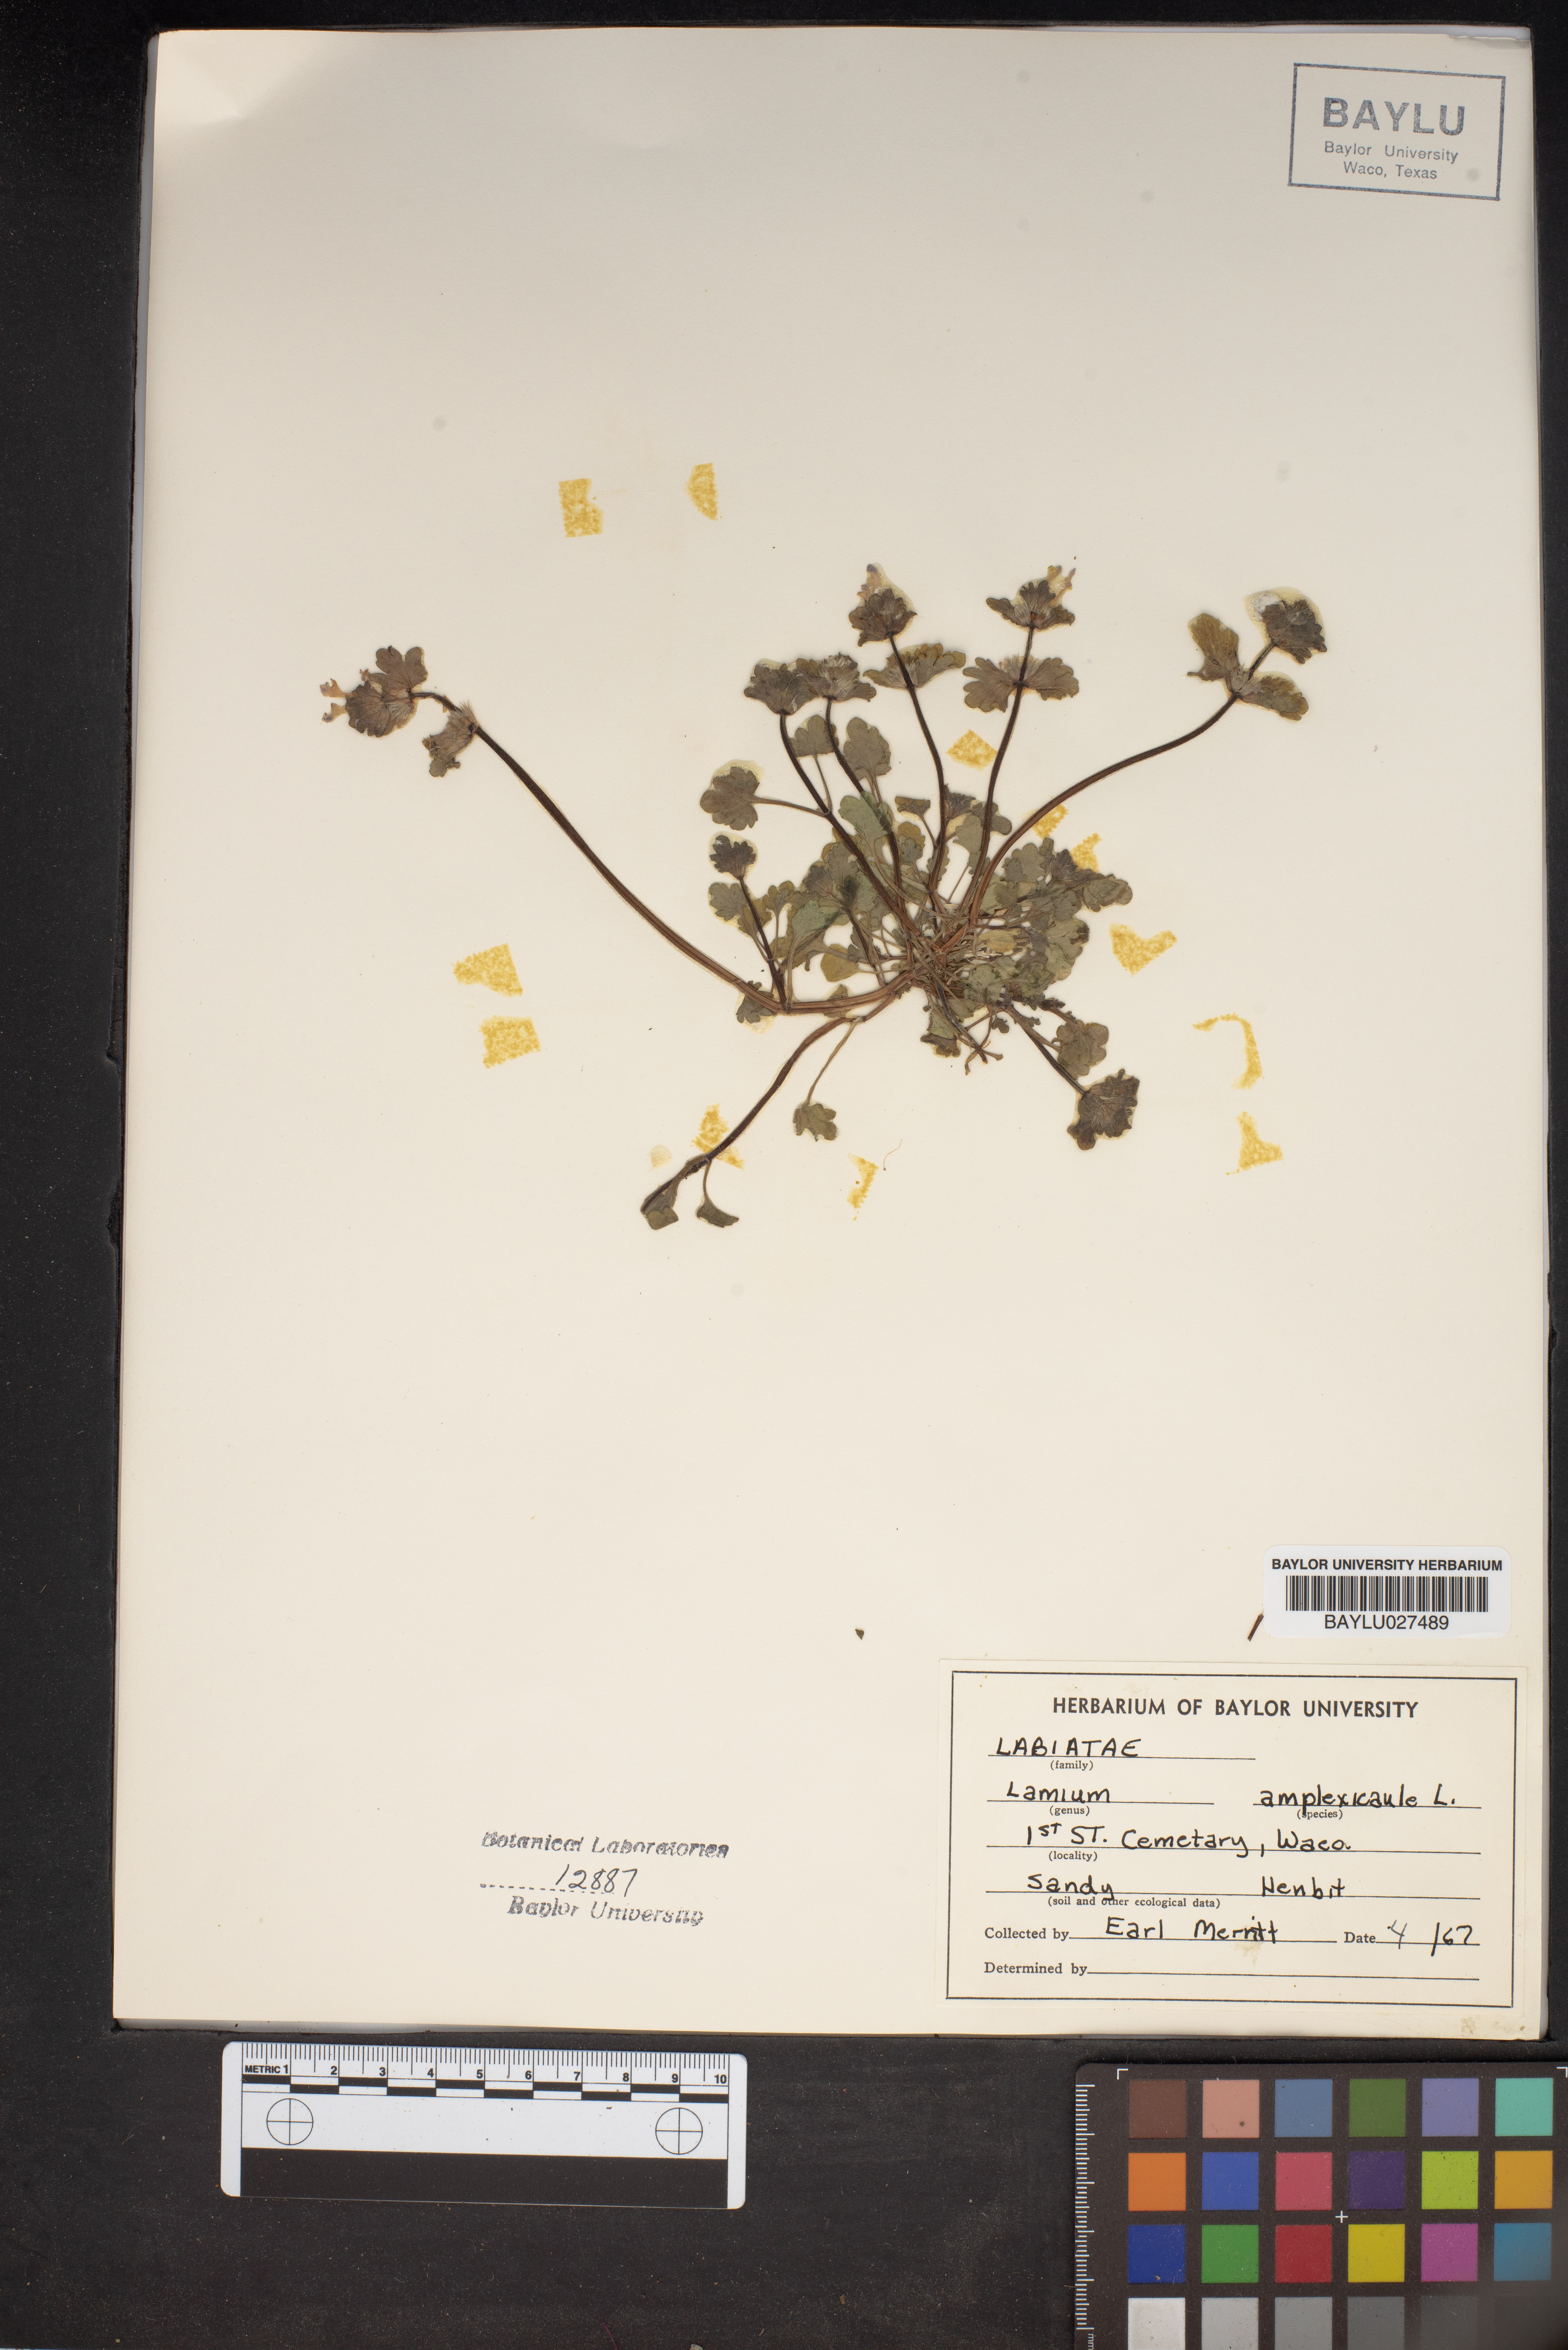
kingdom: Plantae
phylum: Tracheophyta
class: Magnoliopsida
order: Lamiales
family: Lamiaceae
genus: Lamium
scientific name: Lamium amplexicaule
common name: Henbit dead-nettle
